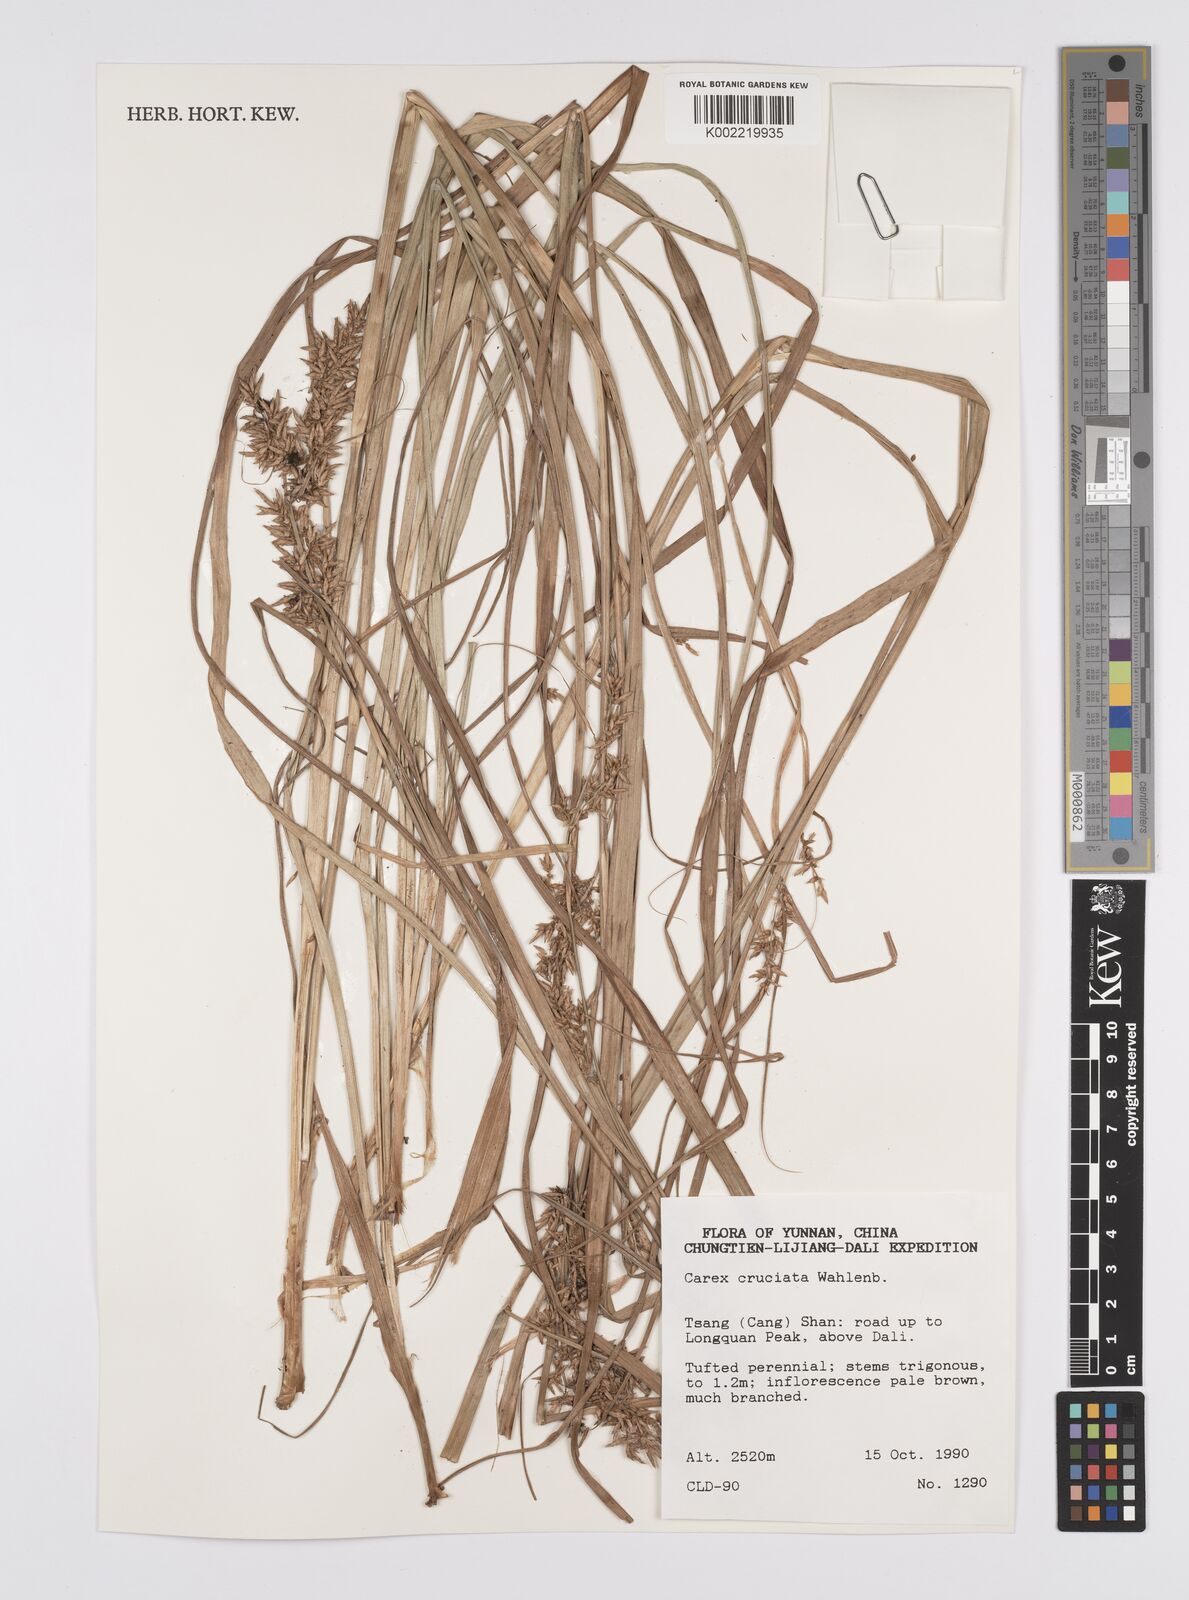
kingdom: Plantae
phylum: Tracheophyta
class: Liliopsida
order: Poales
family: Cyperaceae
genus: Carex
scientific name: Carex cruciata
